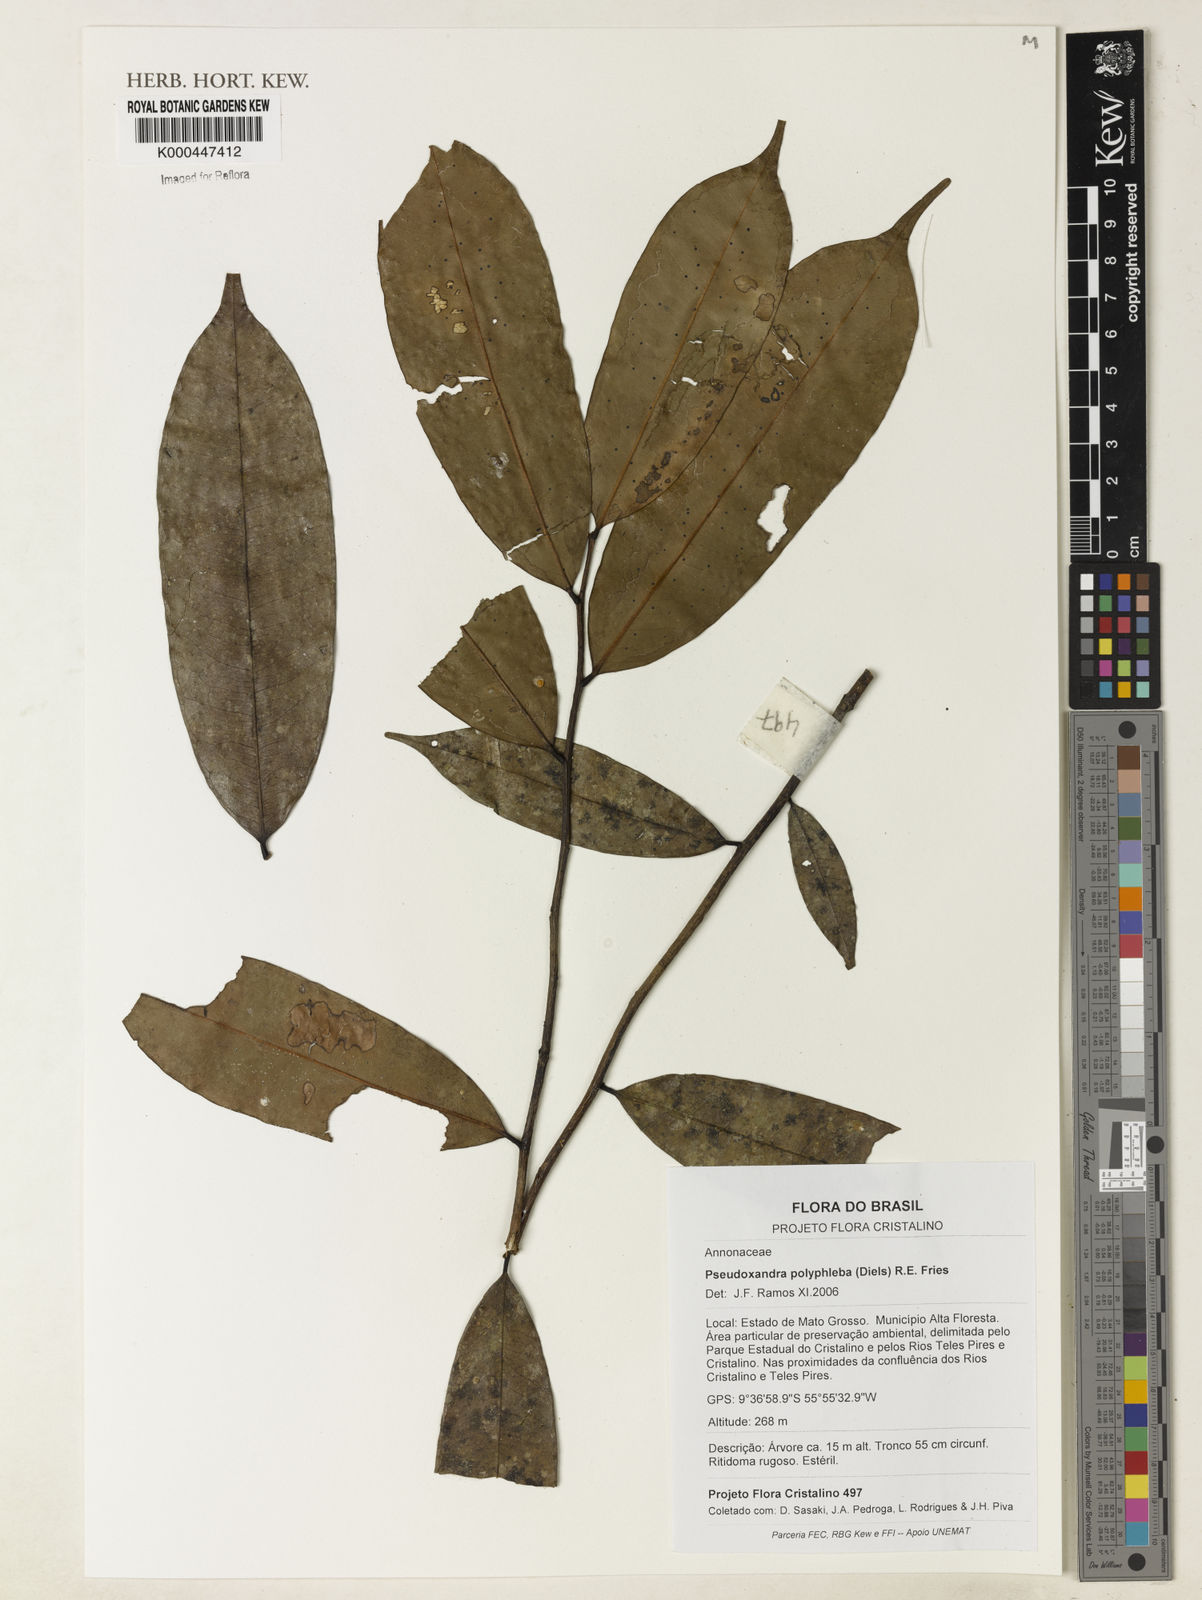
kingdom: Plantae
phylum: Tracheophyta
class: Magnoliopsida
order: Magnoliales
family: Annonaceae
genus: Pseudoxandra
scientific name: Pseudoxandra polyphleba
